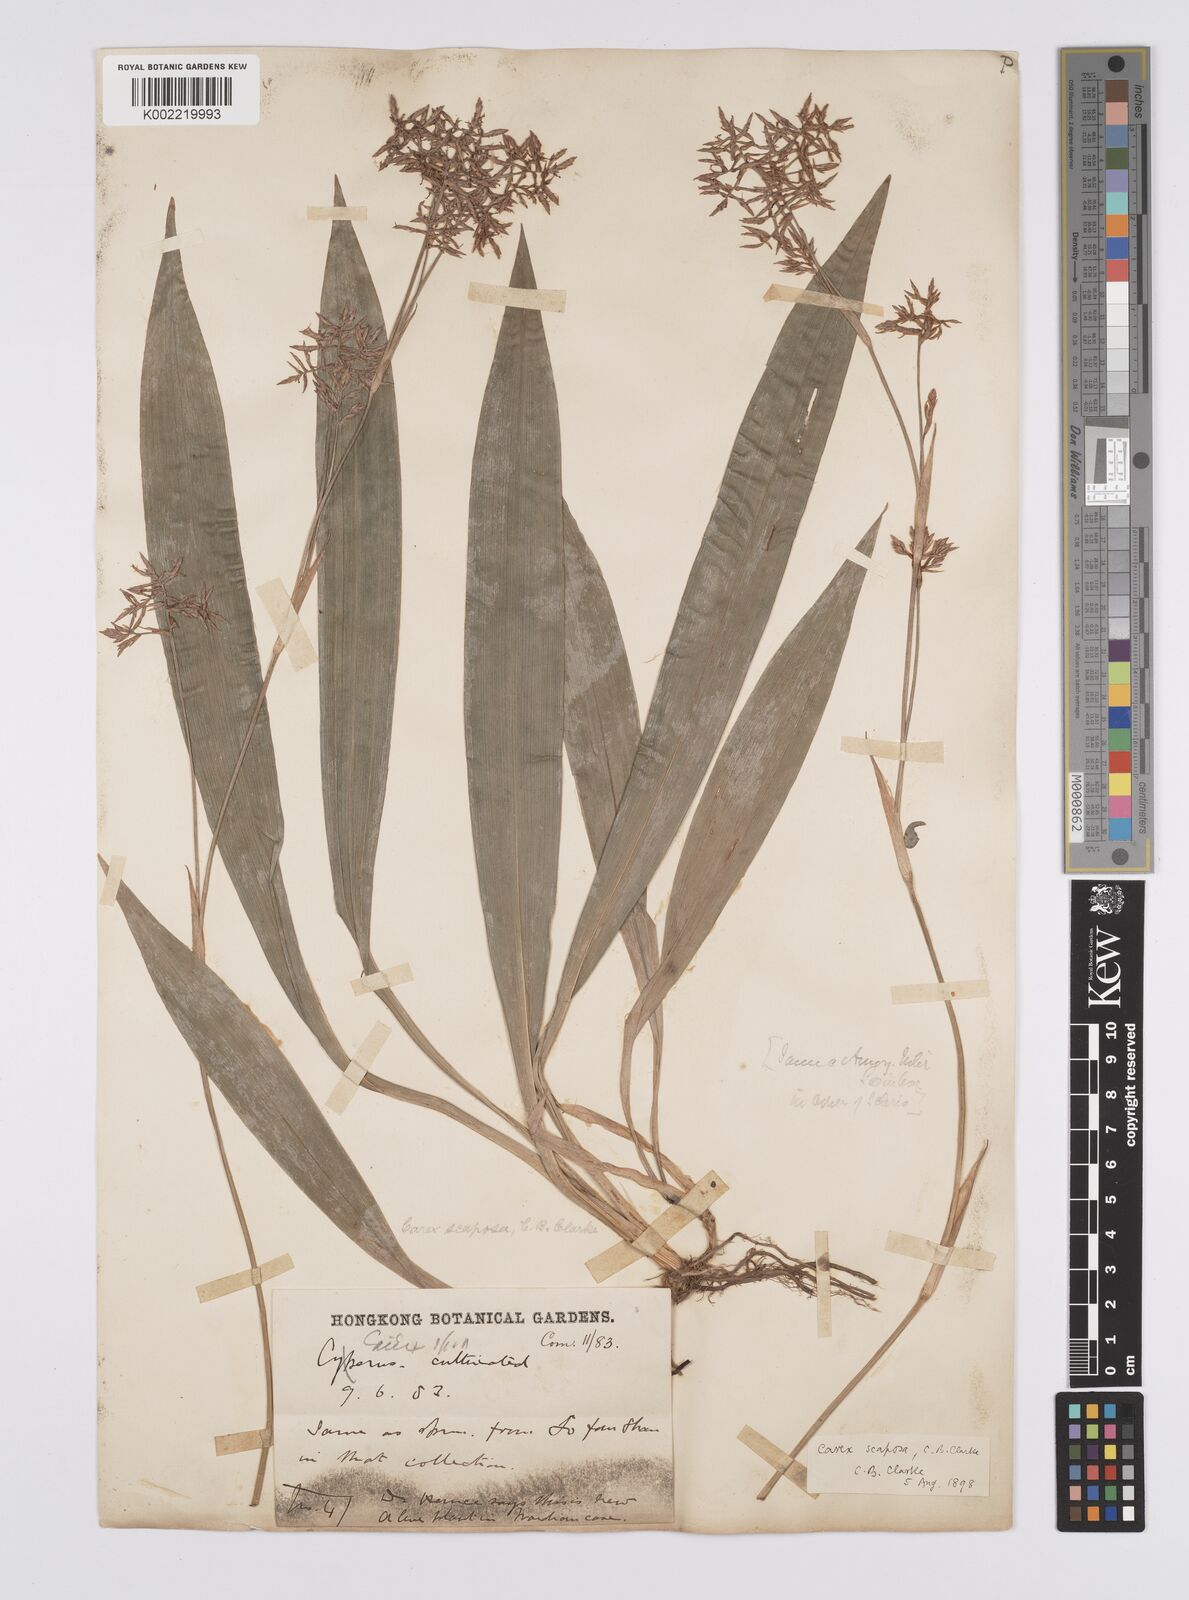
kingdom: Plantae
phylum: Tracheophyta
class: Liliopsida
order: Poales
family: Cyperaceae
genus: Carex
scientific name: Carex scaposa
